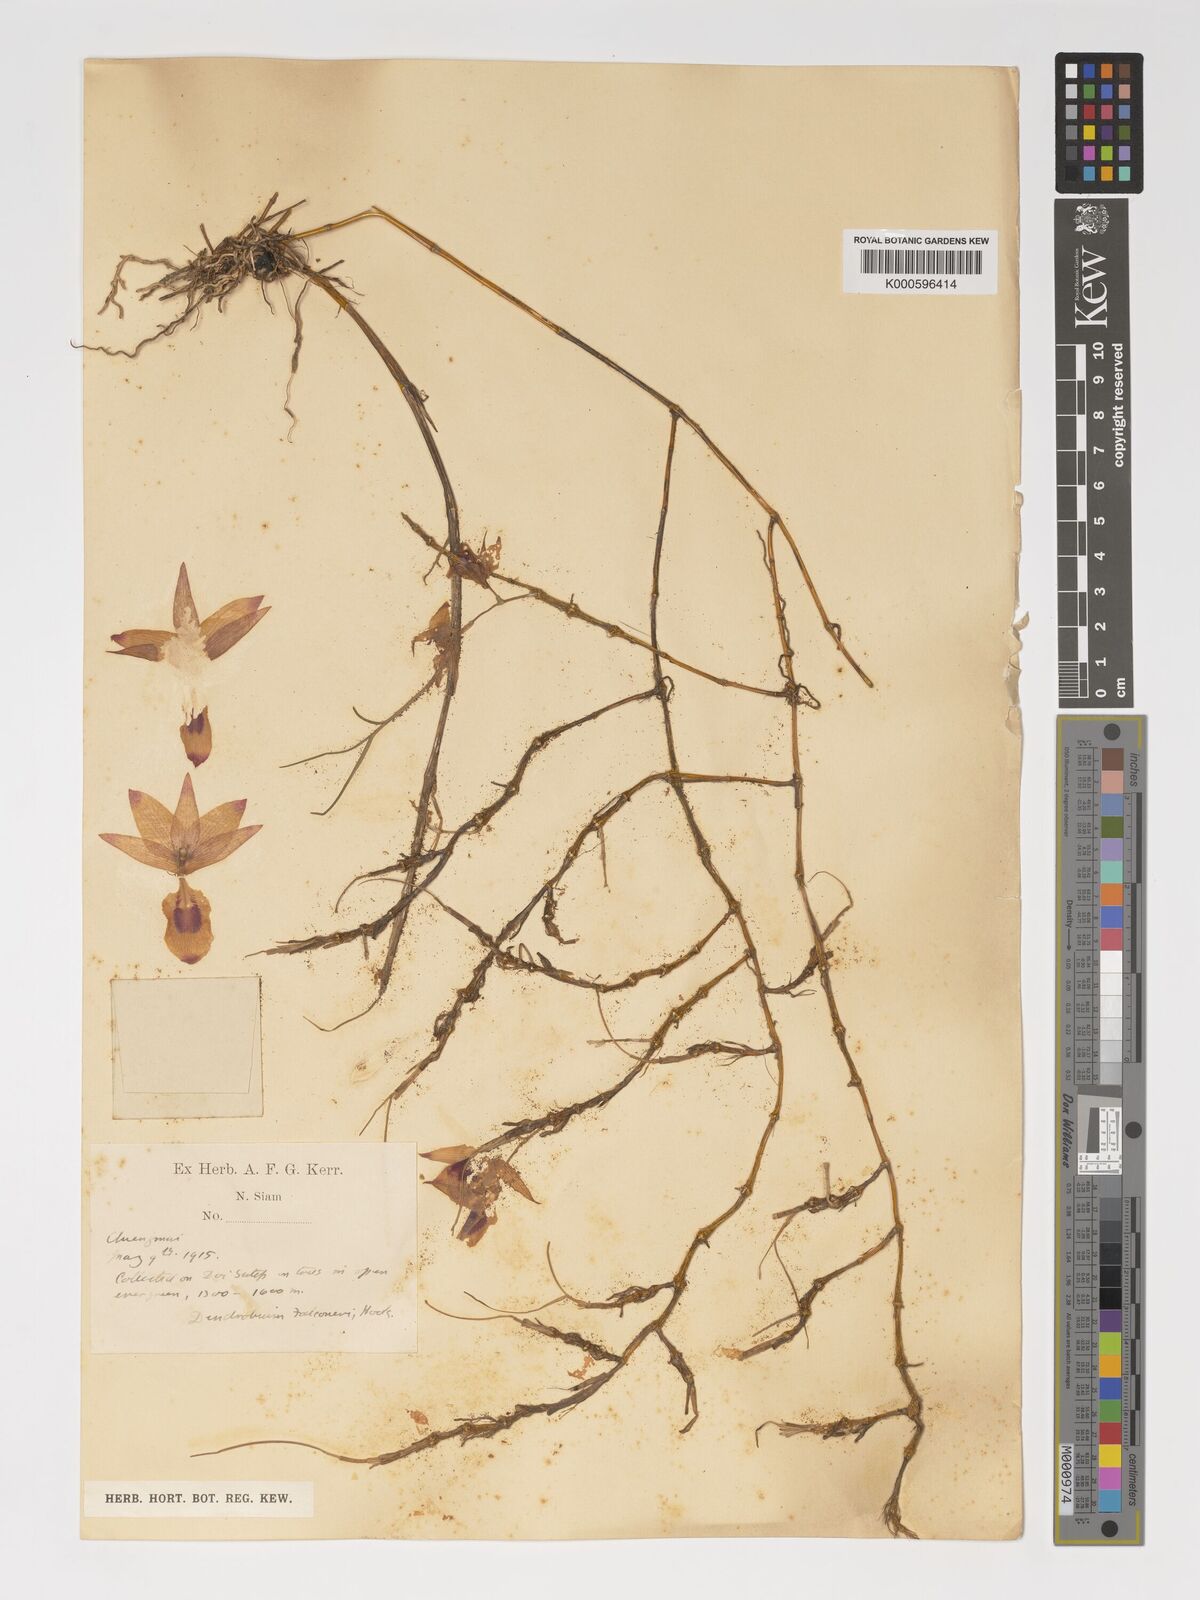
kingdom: Plantae
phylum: Tracheophyta
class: Liliopsida
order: Asparagales
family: Orchidaceae
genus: Dendrobium
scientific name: Dendrobium falconeri
